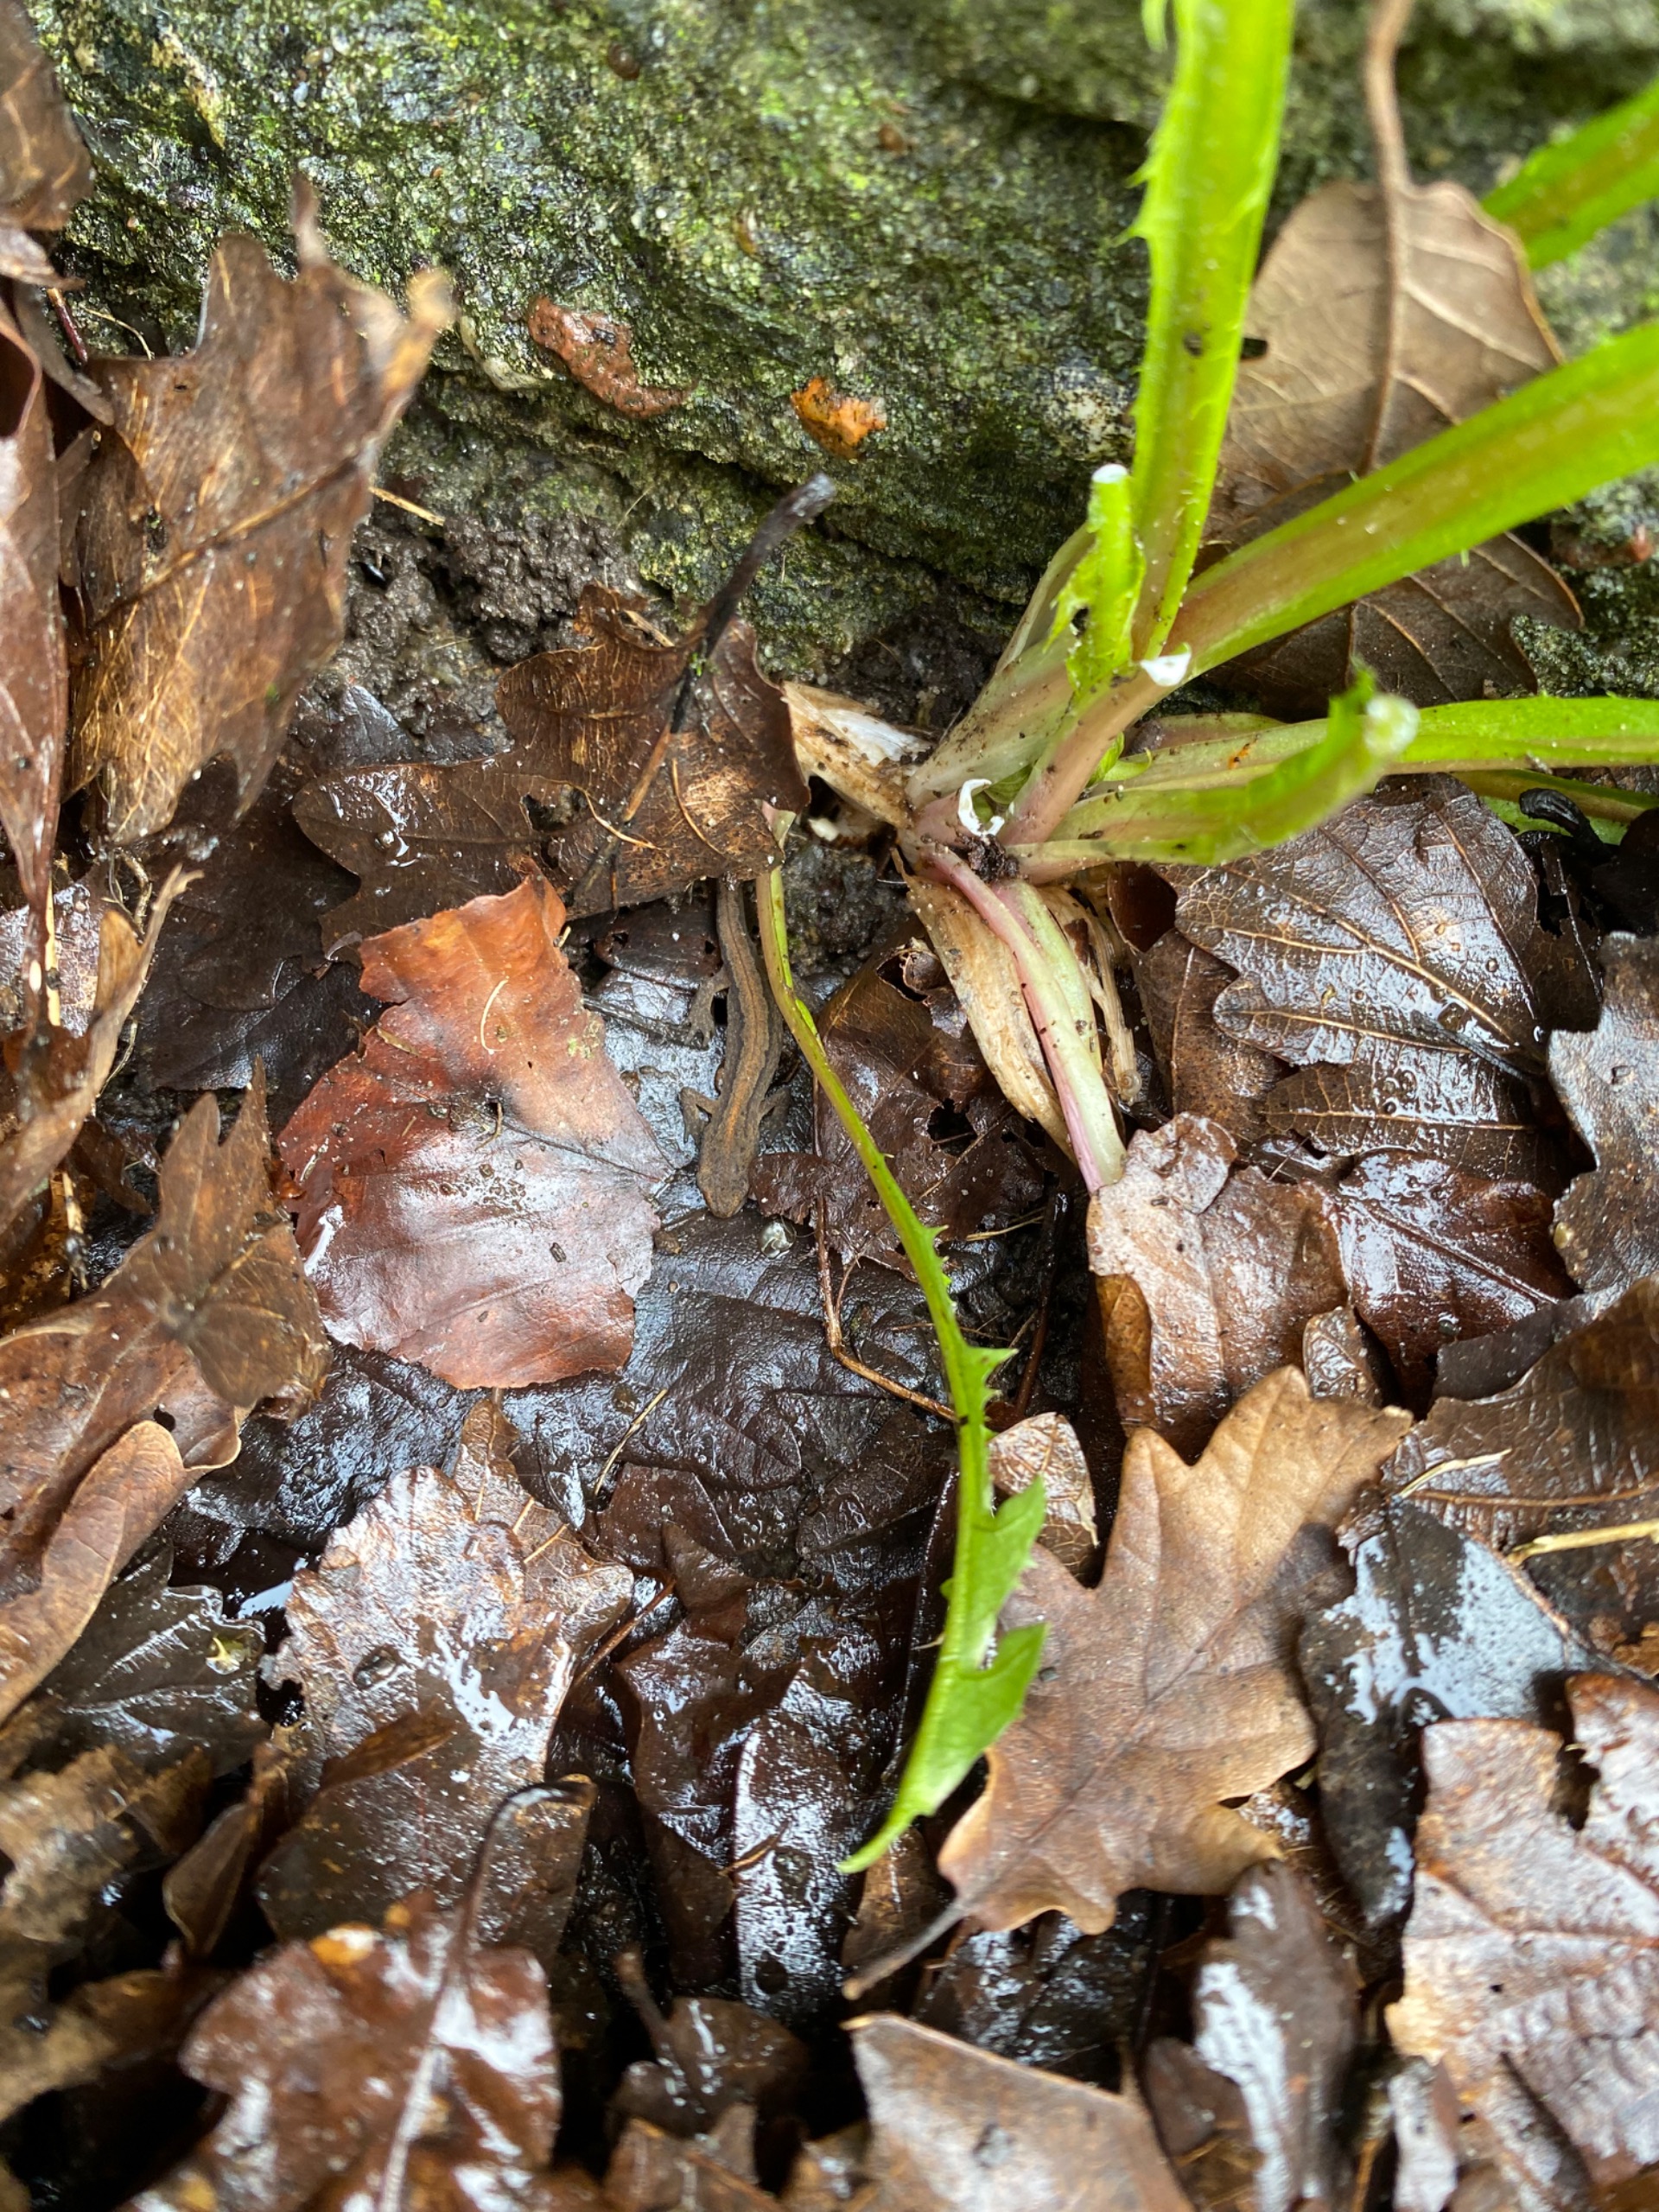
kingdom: Animalia
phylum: Chordata
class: Amphibia
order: Caudata
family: Salamandridae
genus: Lissotriton
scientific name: Lissotriton vulgaris
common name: Lille vandsalamander
